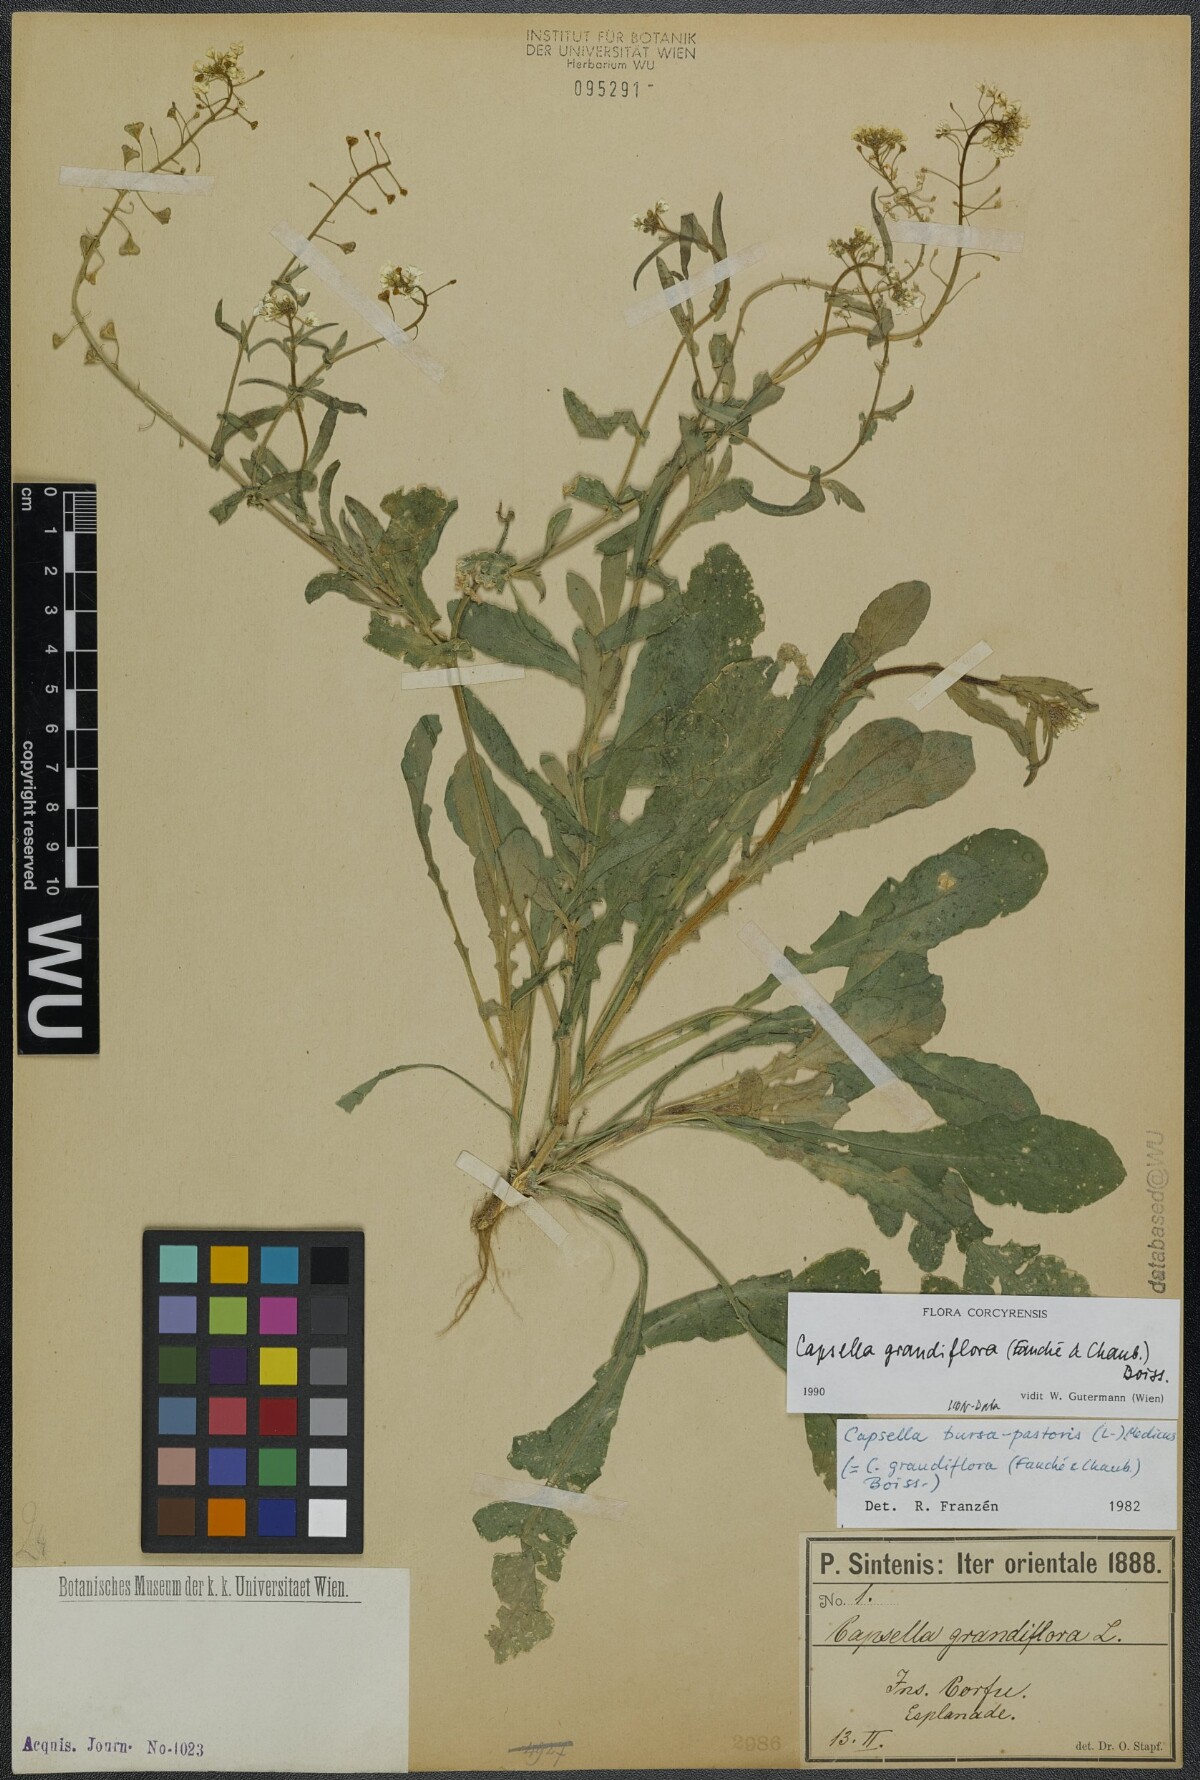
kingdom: Plantae
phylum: Tracheophyta
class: Magnoliopsida
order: Brassicales
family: Brassicaceae
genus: Capsella
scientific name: Capsella grandiflora
